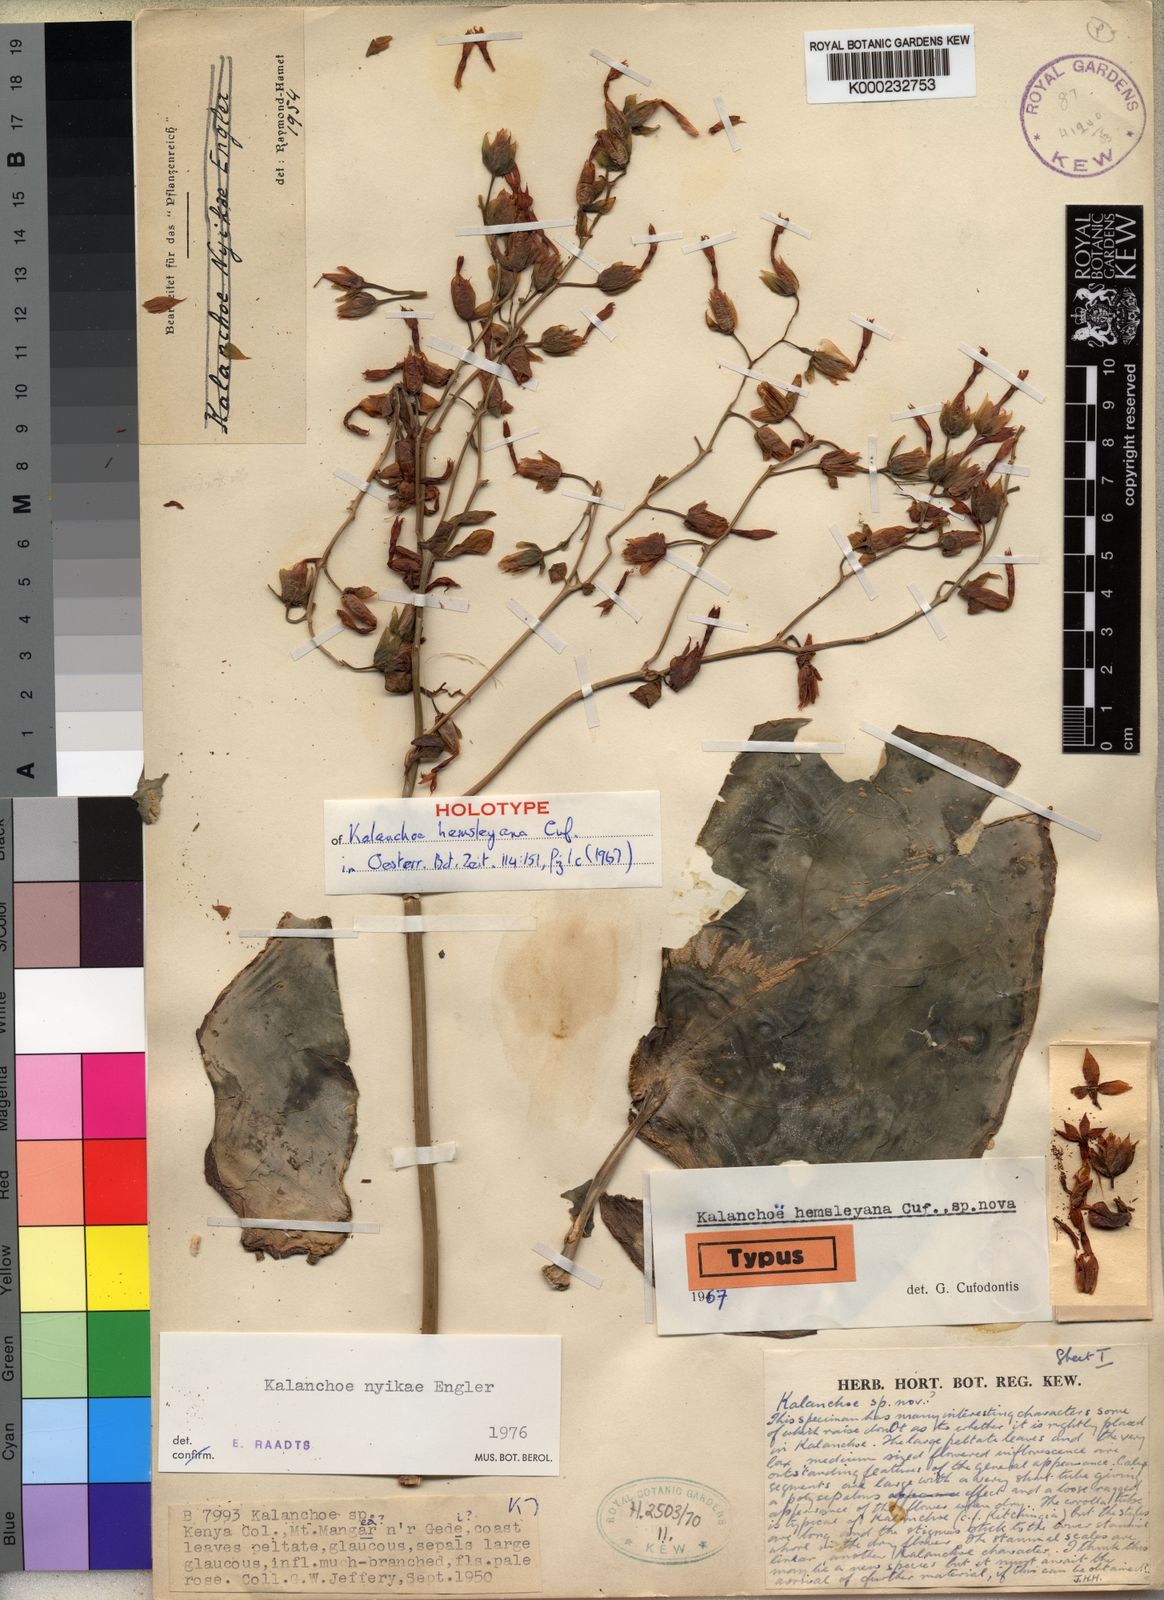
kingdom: Plantae
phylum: Tracheophyta
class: Magnoliopsida
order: Saxifragales
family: Crassulaceae
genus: Kalanchoe
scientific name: Kalanchoe nyikae
